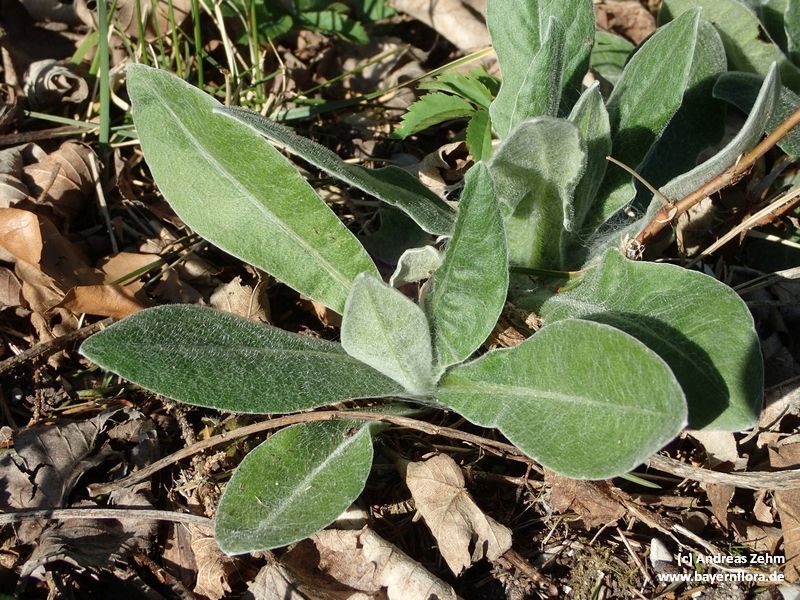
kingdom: Plantae
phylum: Tracheophyta
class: Magnoliopsida
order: Asterales
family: Asteraceae
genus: Centaurea
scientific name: Centaurea montana
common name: Perennial cornflower
